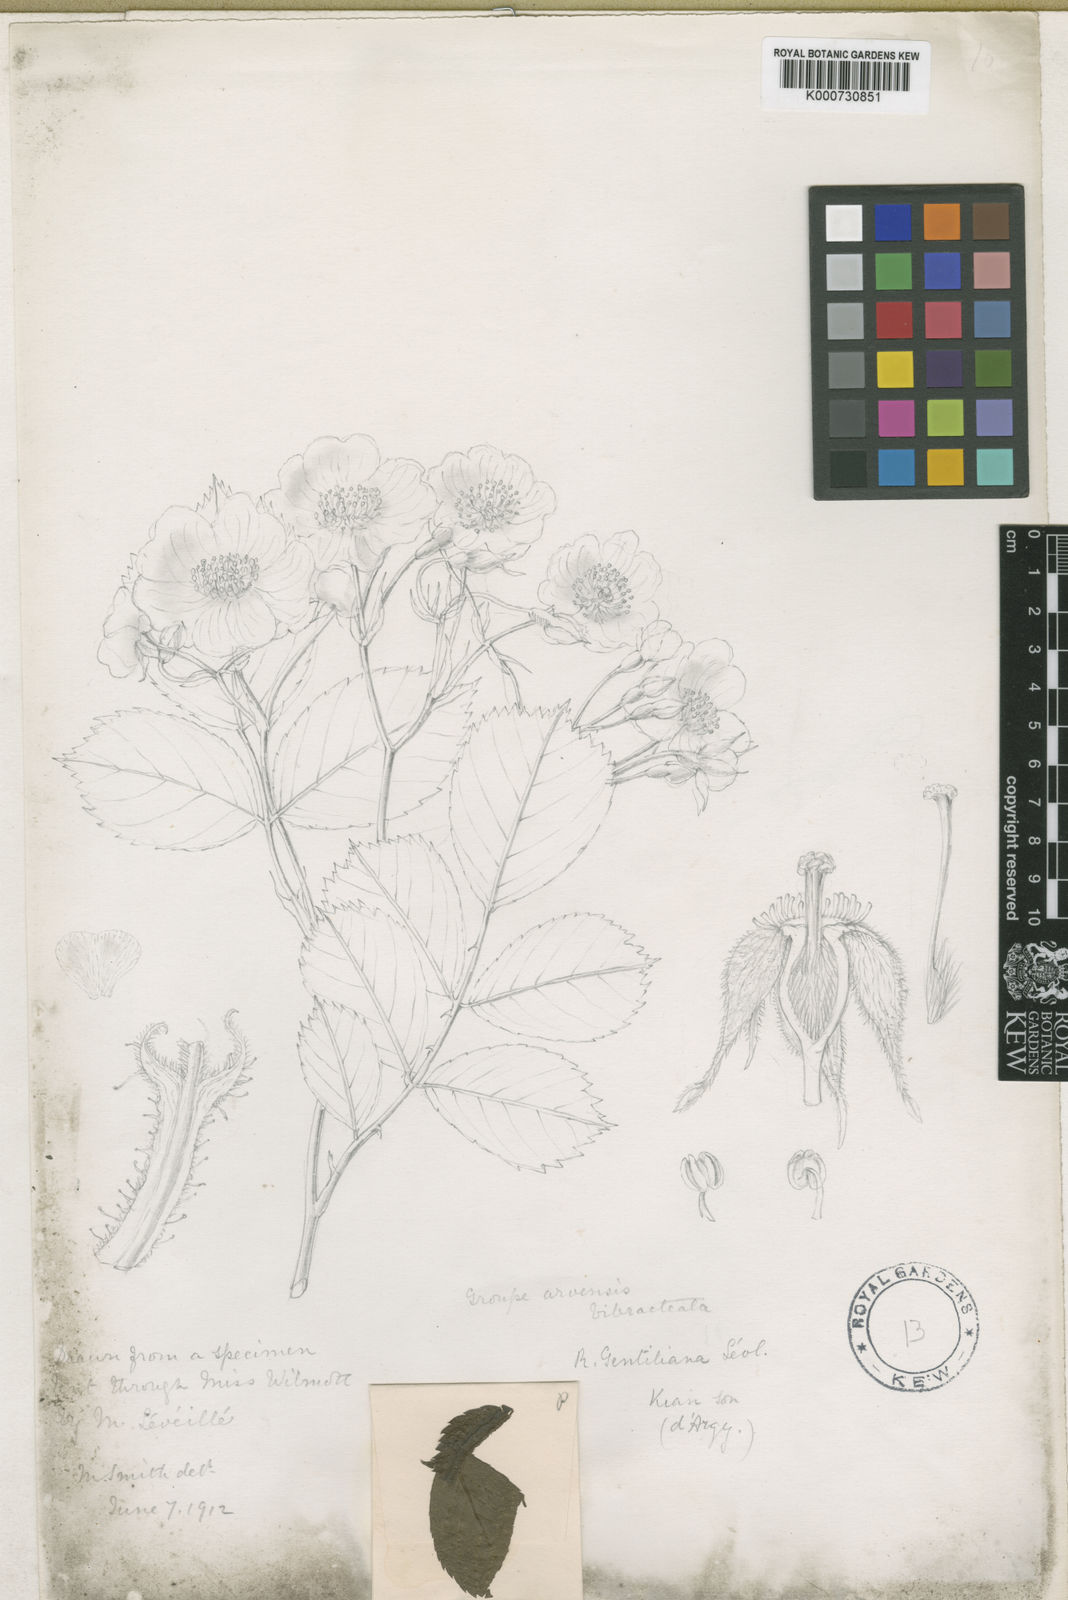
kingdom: Plantae
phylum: Tracheophyta
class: Magnoliopsida
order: Rosales
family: Rosaceae
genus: Rosa
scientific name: Rosa
